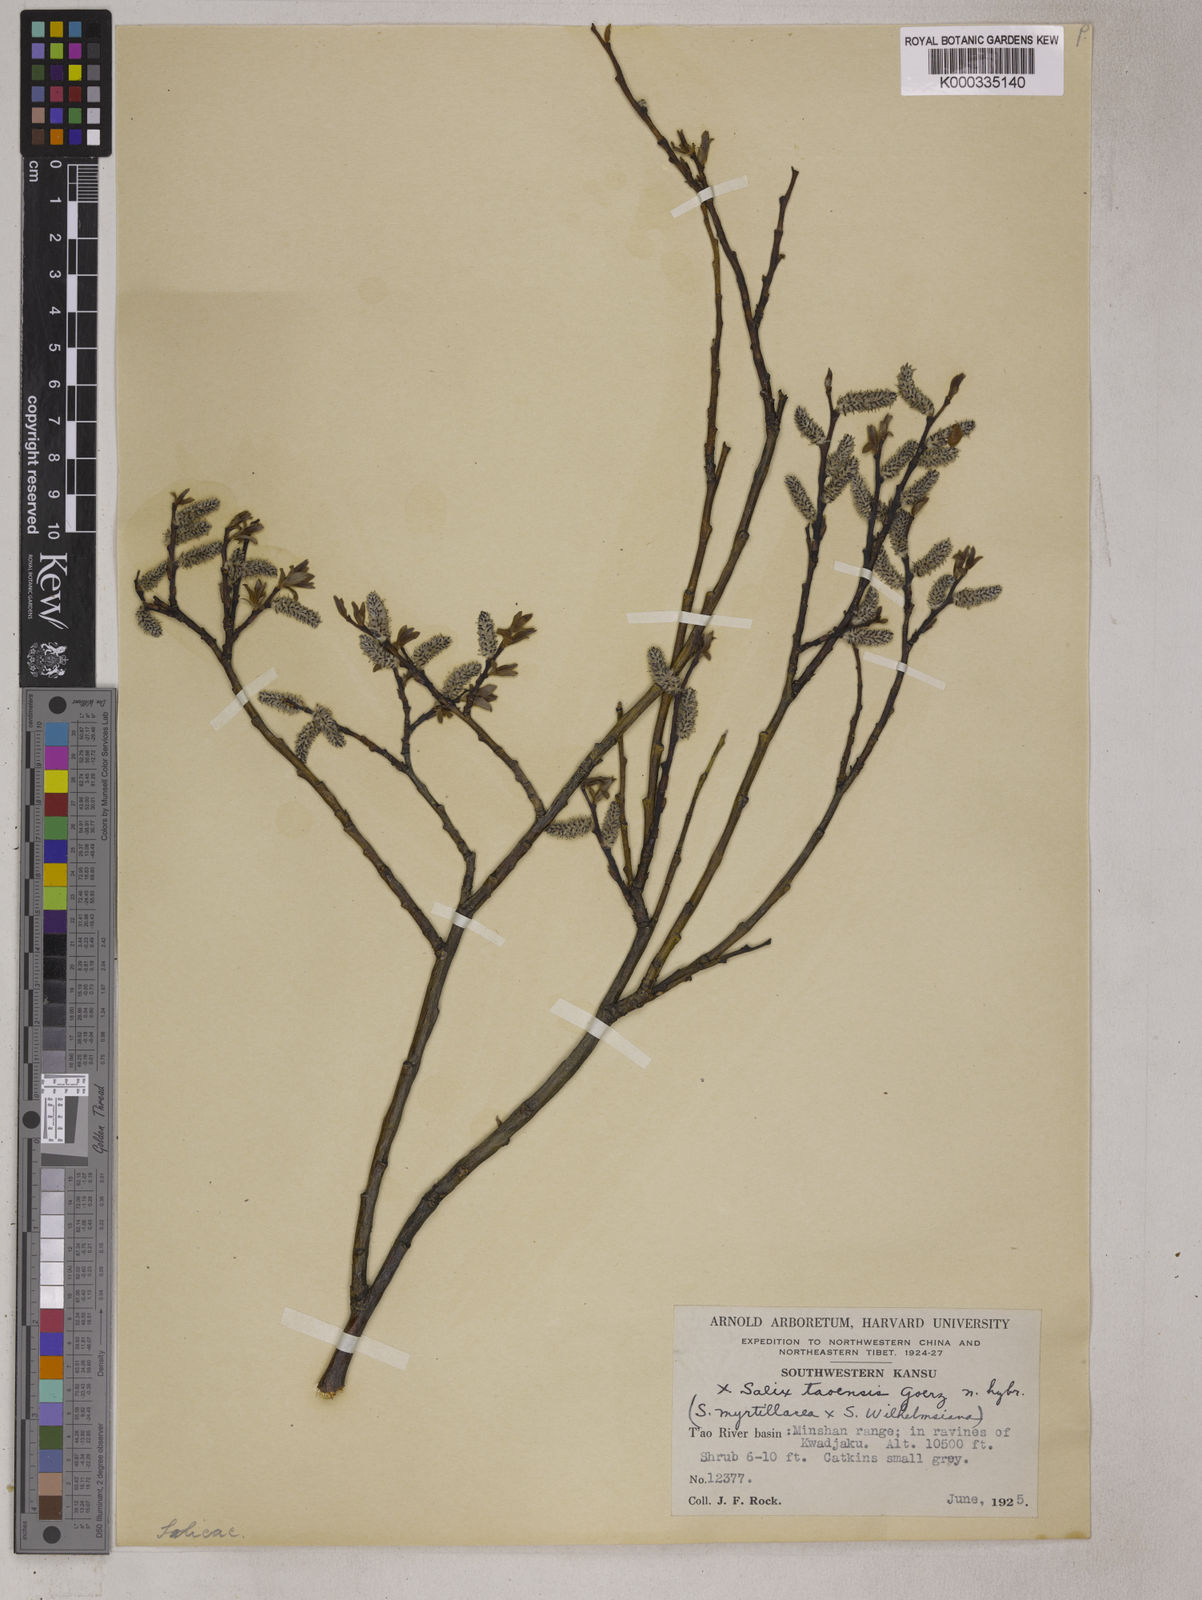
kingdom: Plantae
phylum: Tracheophyta
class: Magnoliopsida
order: Malpighiales
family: Salicaceae
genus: Salix
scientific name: Salix
